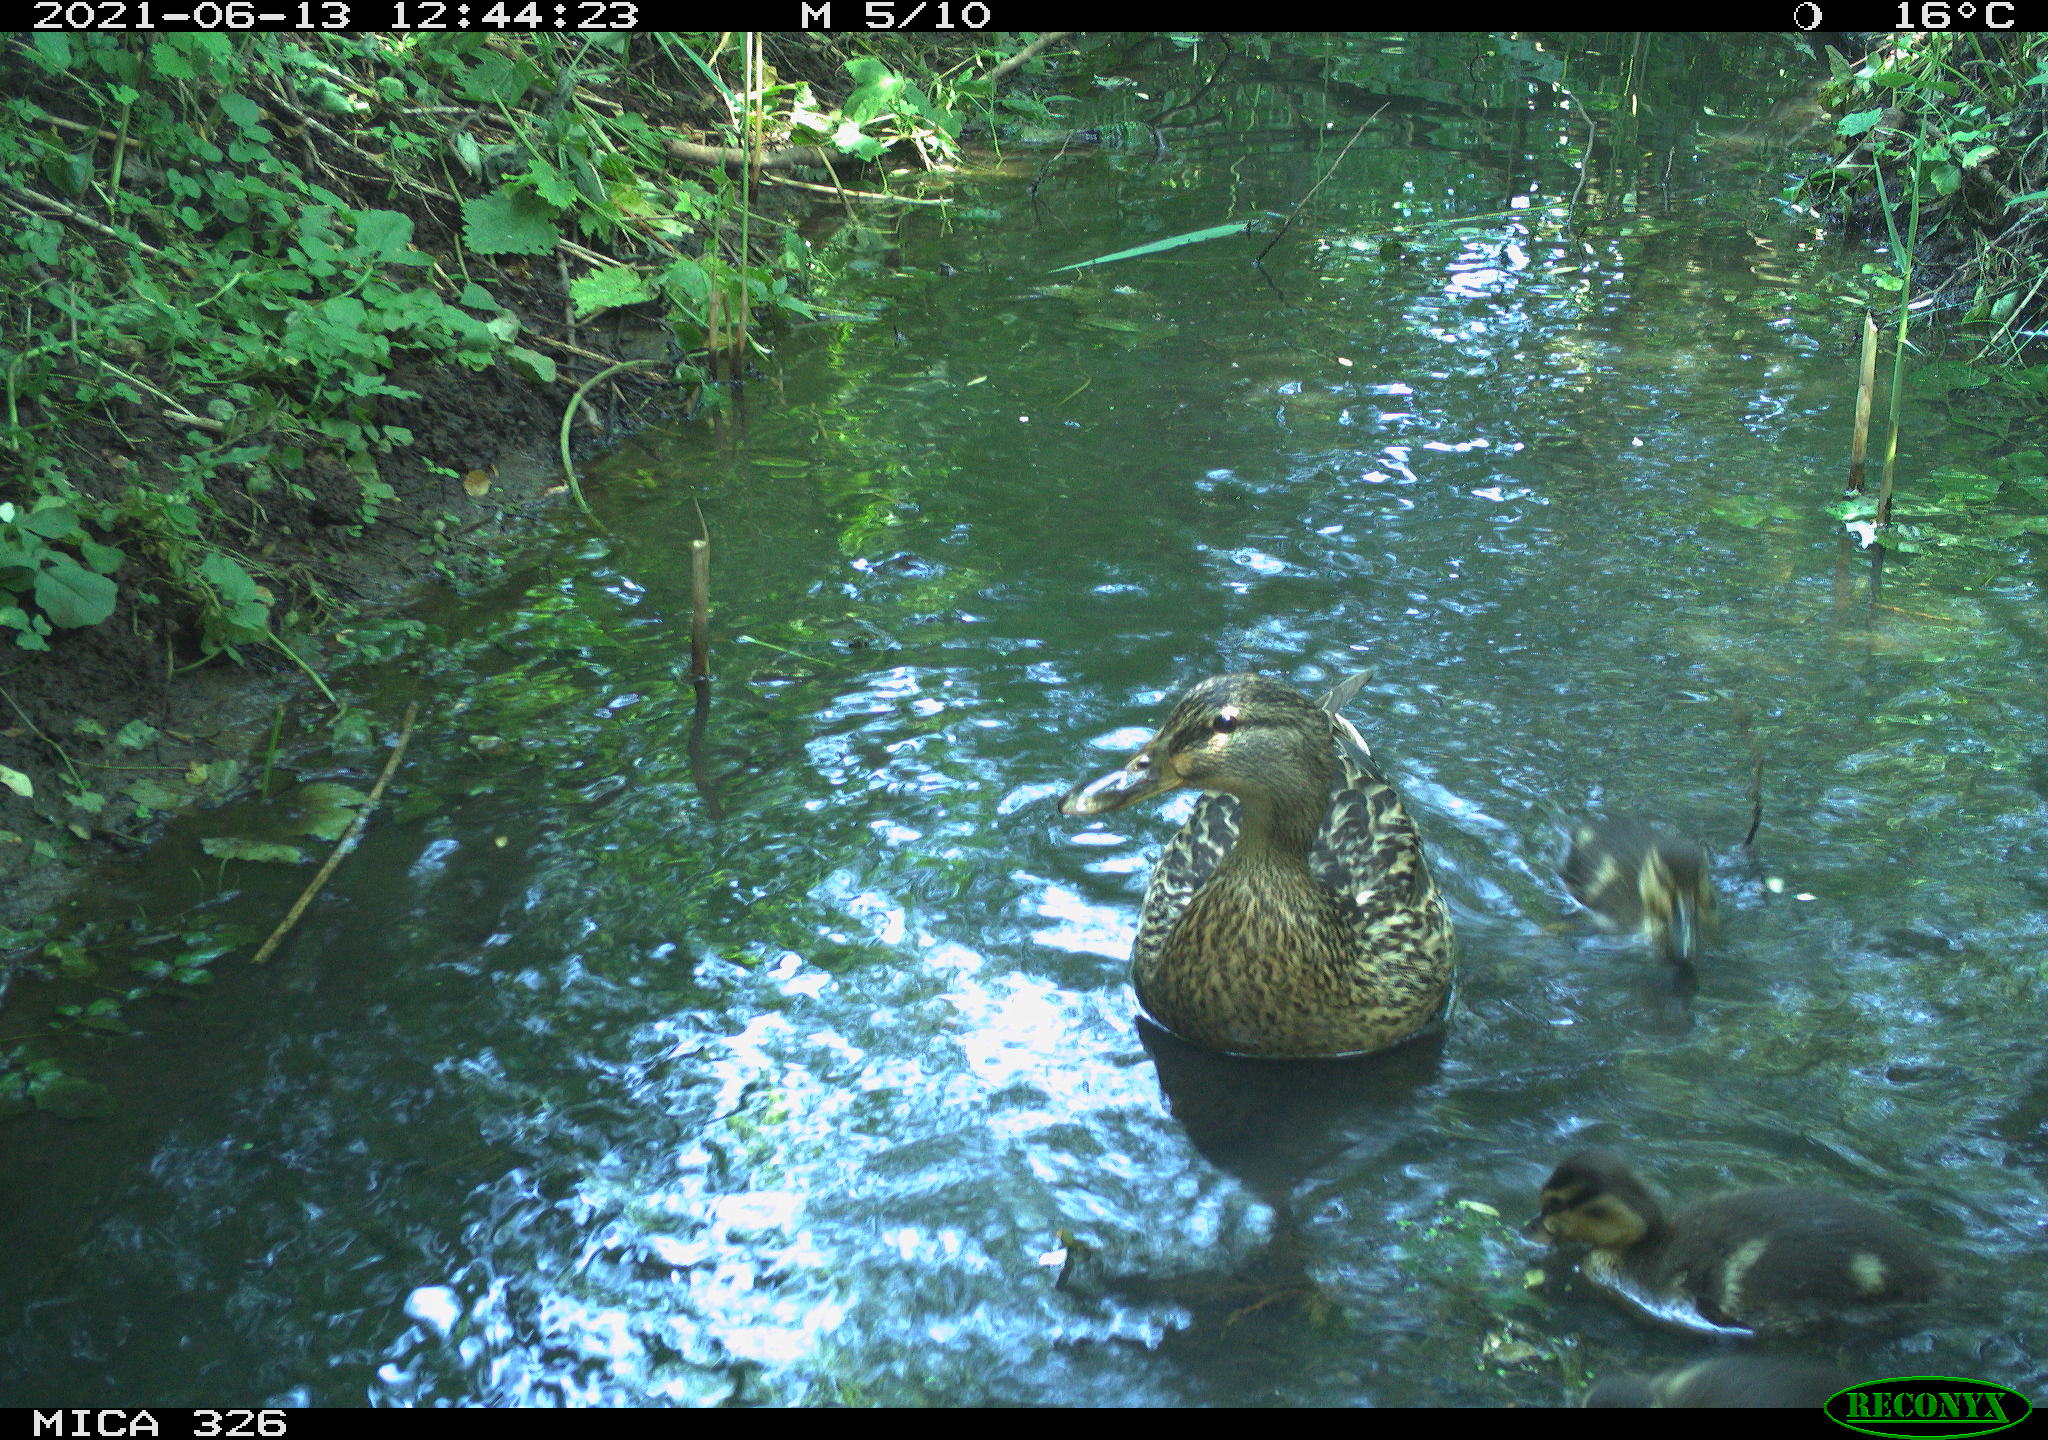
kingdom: Animalia
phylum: Chordata
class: Aves
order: Anseriformes
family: Anatidae
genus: Anas
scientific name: Anas platyrhynchos
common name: Mallard
